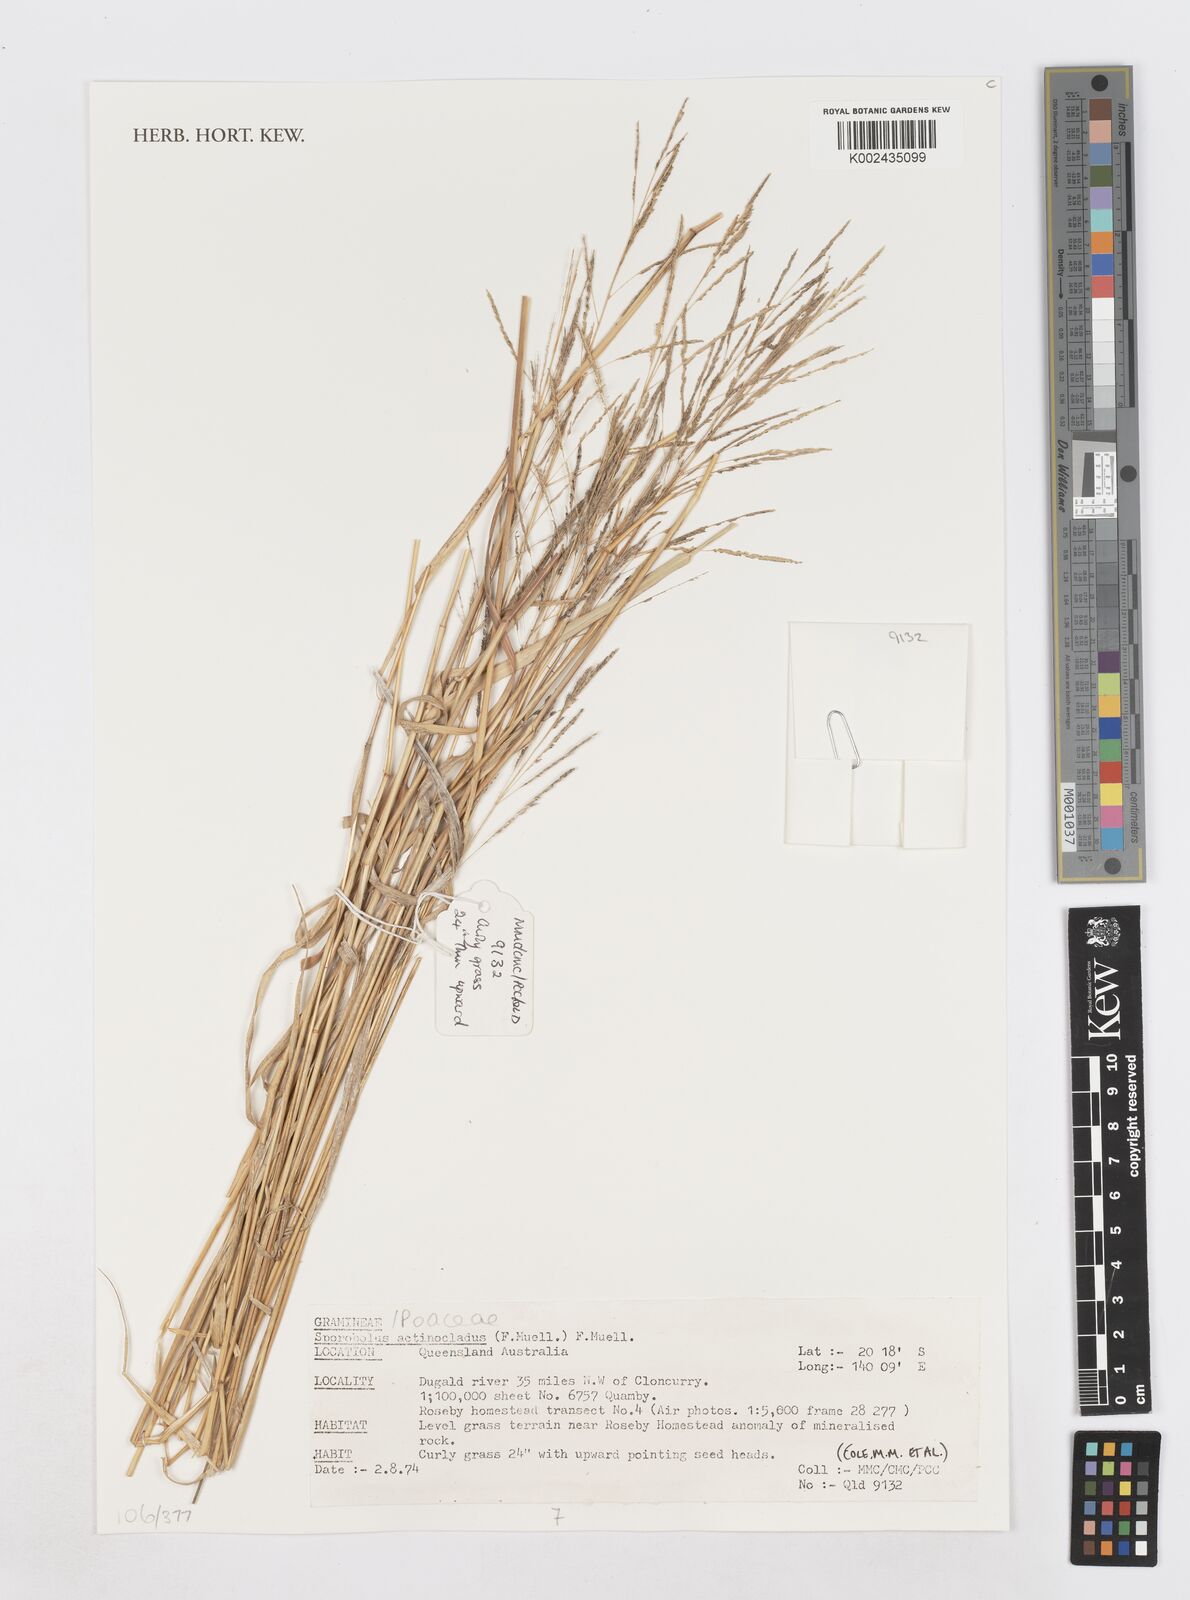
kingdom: Plantae
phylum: Tracheophyta
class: Liliopsida
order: Poales
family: Poaceae
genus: Sporobolus
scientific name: Sporobolus actinocladus
